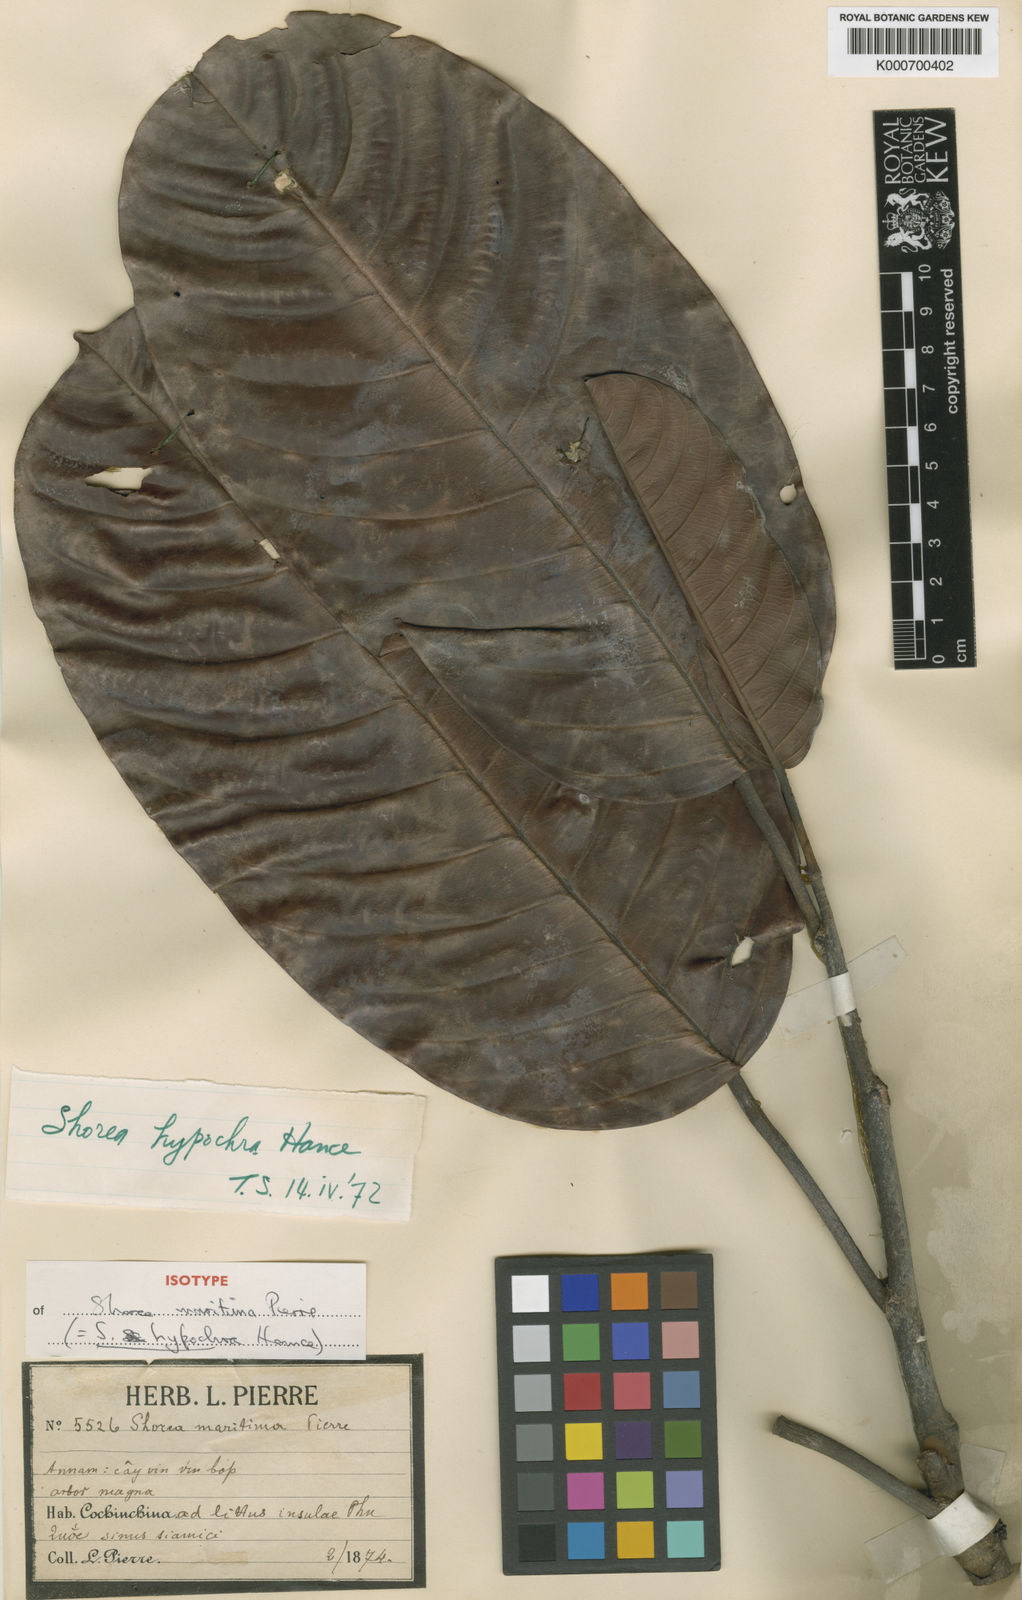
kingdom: Plantae
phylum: Tracheophyta
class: Magnoliopsida
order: Malvales
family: Dipterocarpaceae
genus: Anthoshorea
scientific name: Anthoshorea hypochra
